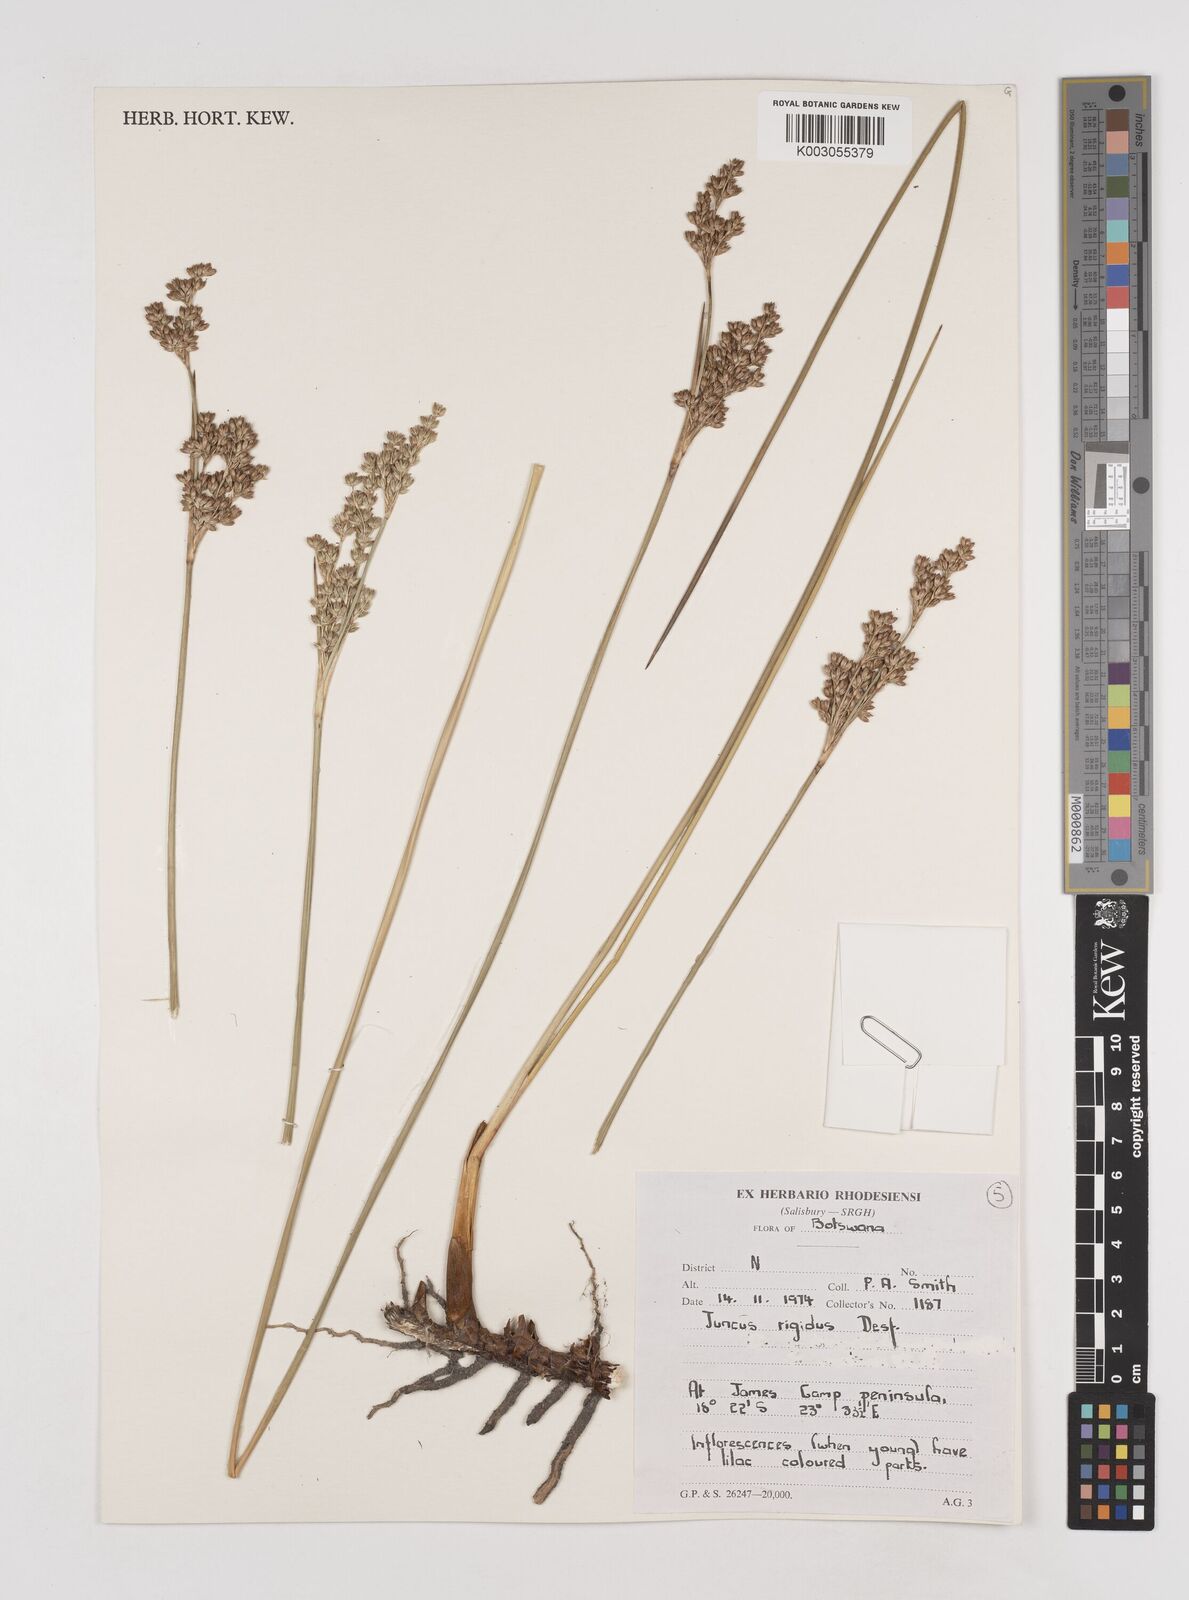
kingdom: Plantae
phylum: Tracheophyta
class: Liliopsida
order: Poales
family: Juncaceae
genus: Juncus
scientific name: Juncus rigidus
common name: Hard sea rush
